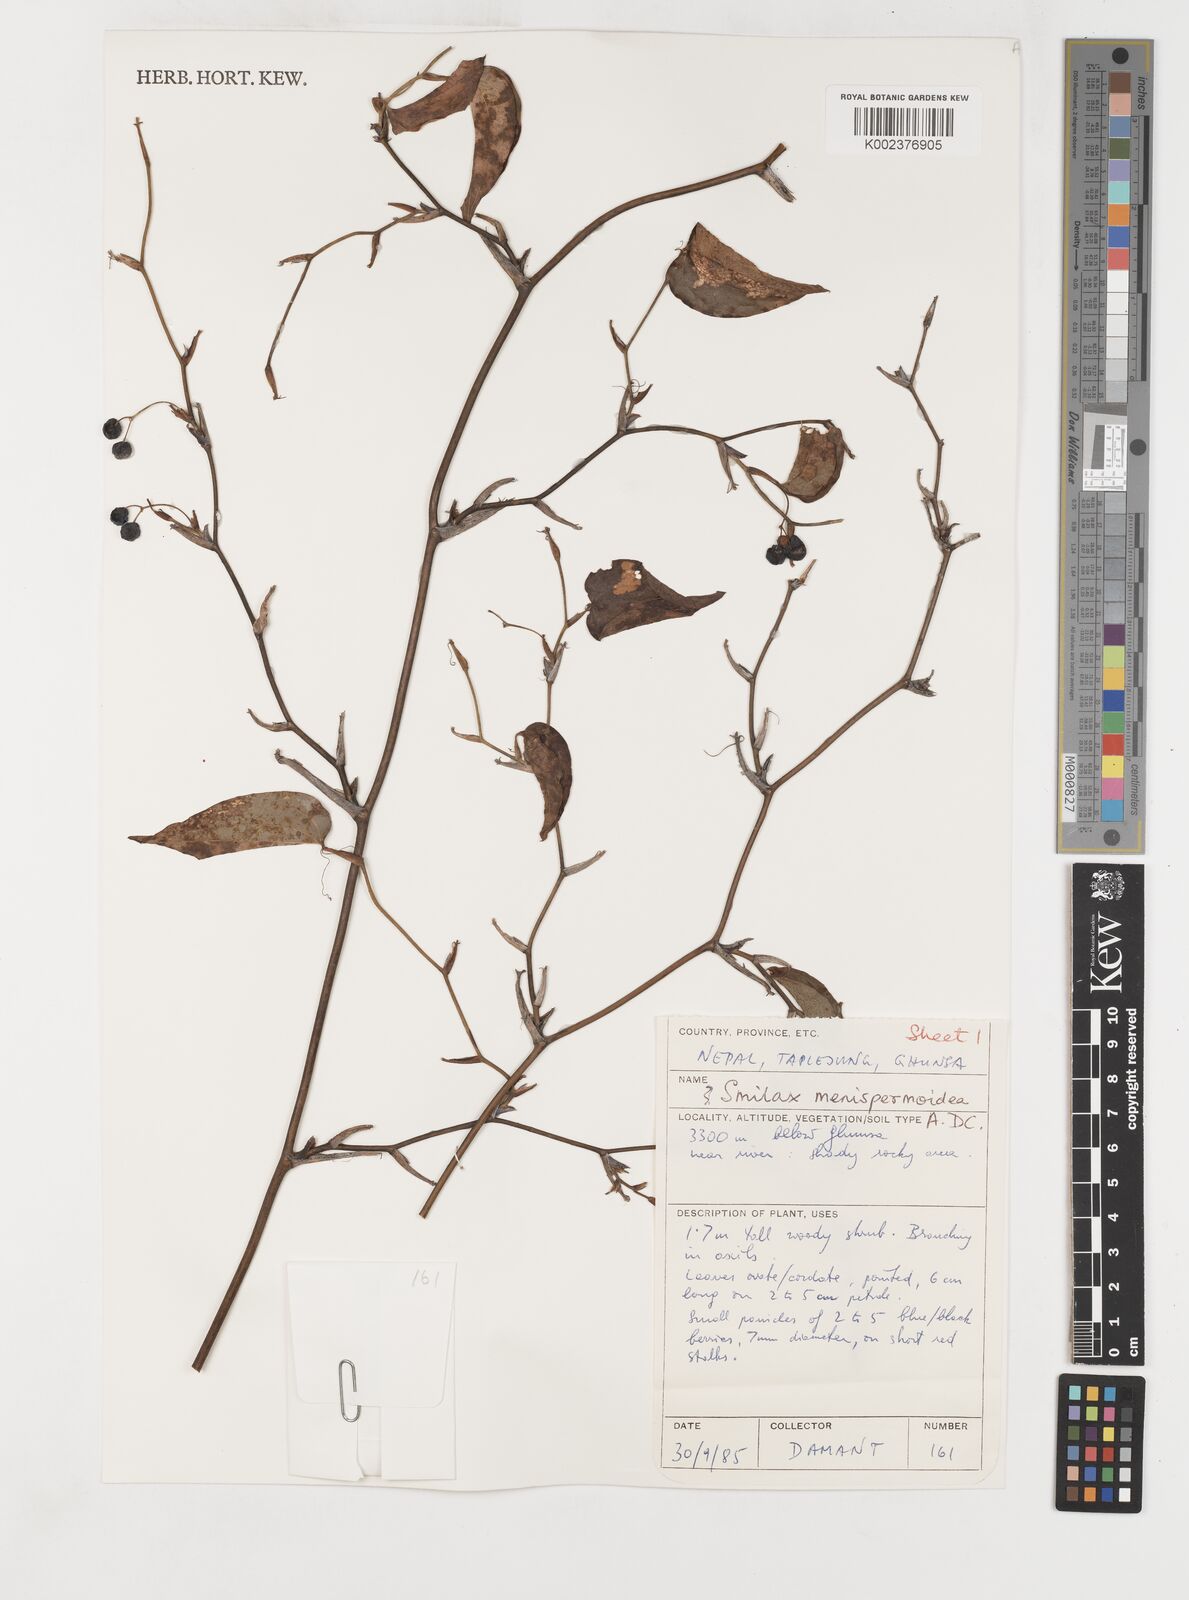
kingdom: Plantae
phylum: Tracheophyta
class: Liliopsida
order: Liliales
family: Smilacaceae
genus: Smilax
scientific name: Smilax menispermoidea
